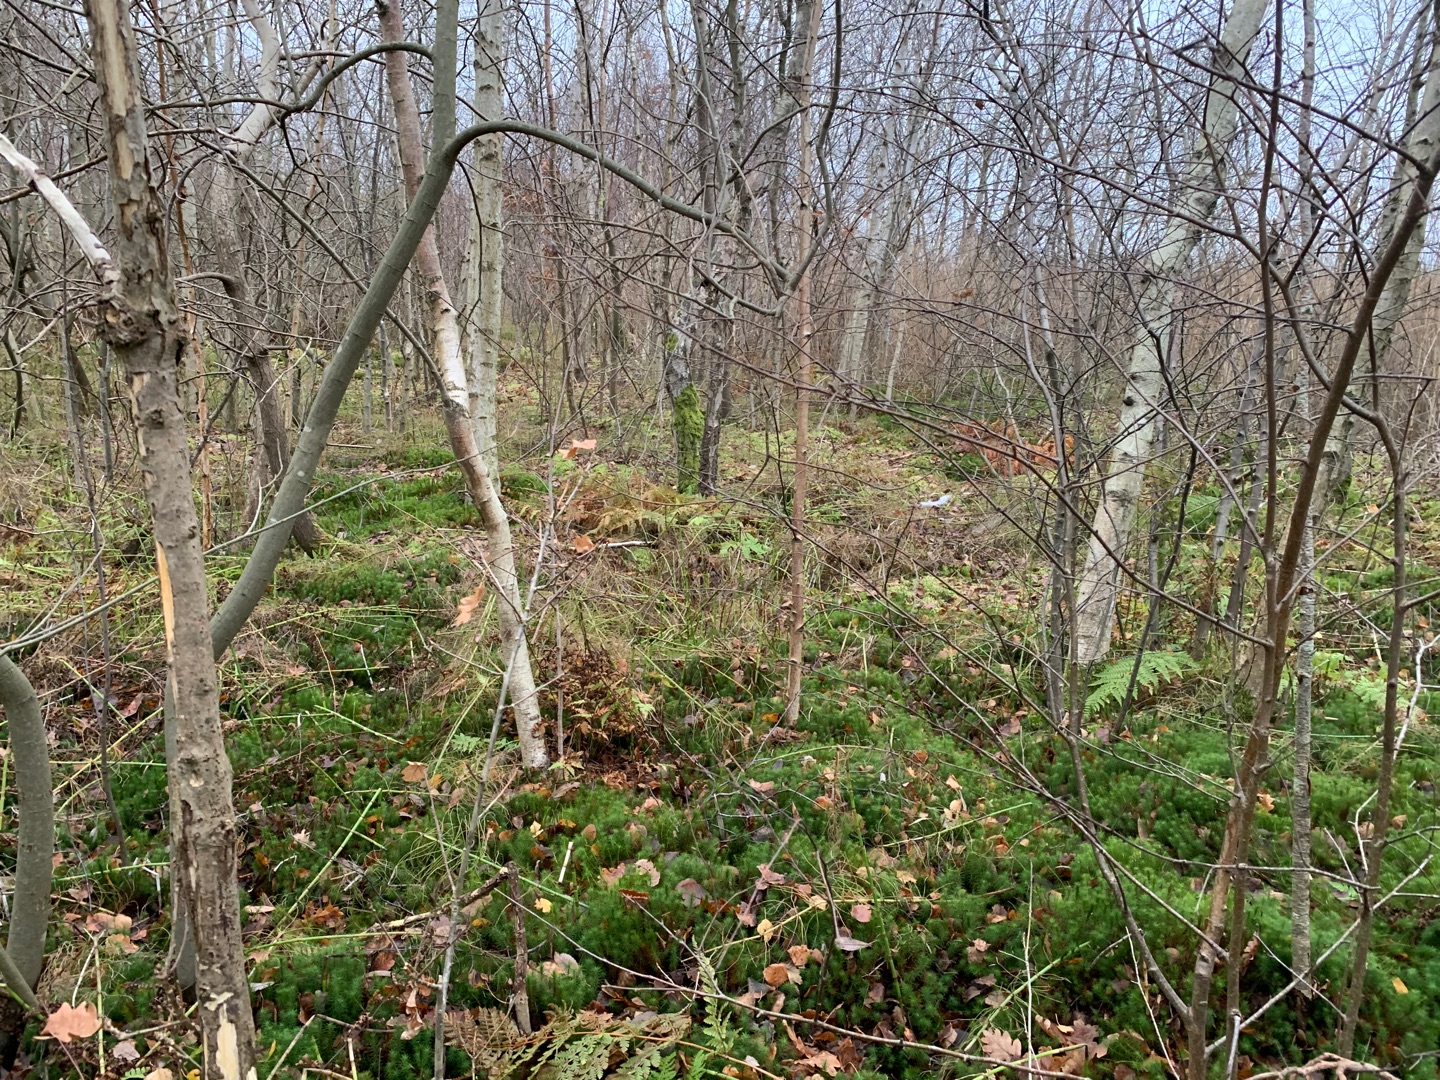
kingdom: Plantae
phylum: Bryophyta
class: Polytrichopsida
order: Polytrichales
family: Polytrichaceae
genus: Polytrichum
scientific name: Polytrichum commune
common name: Almindelig jomfruhår
